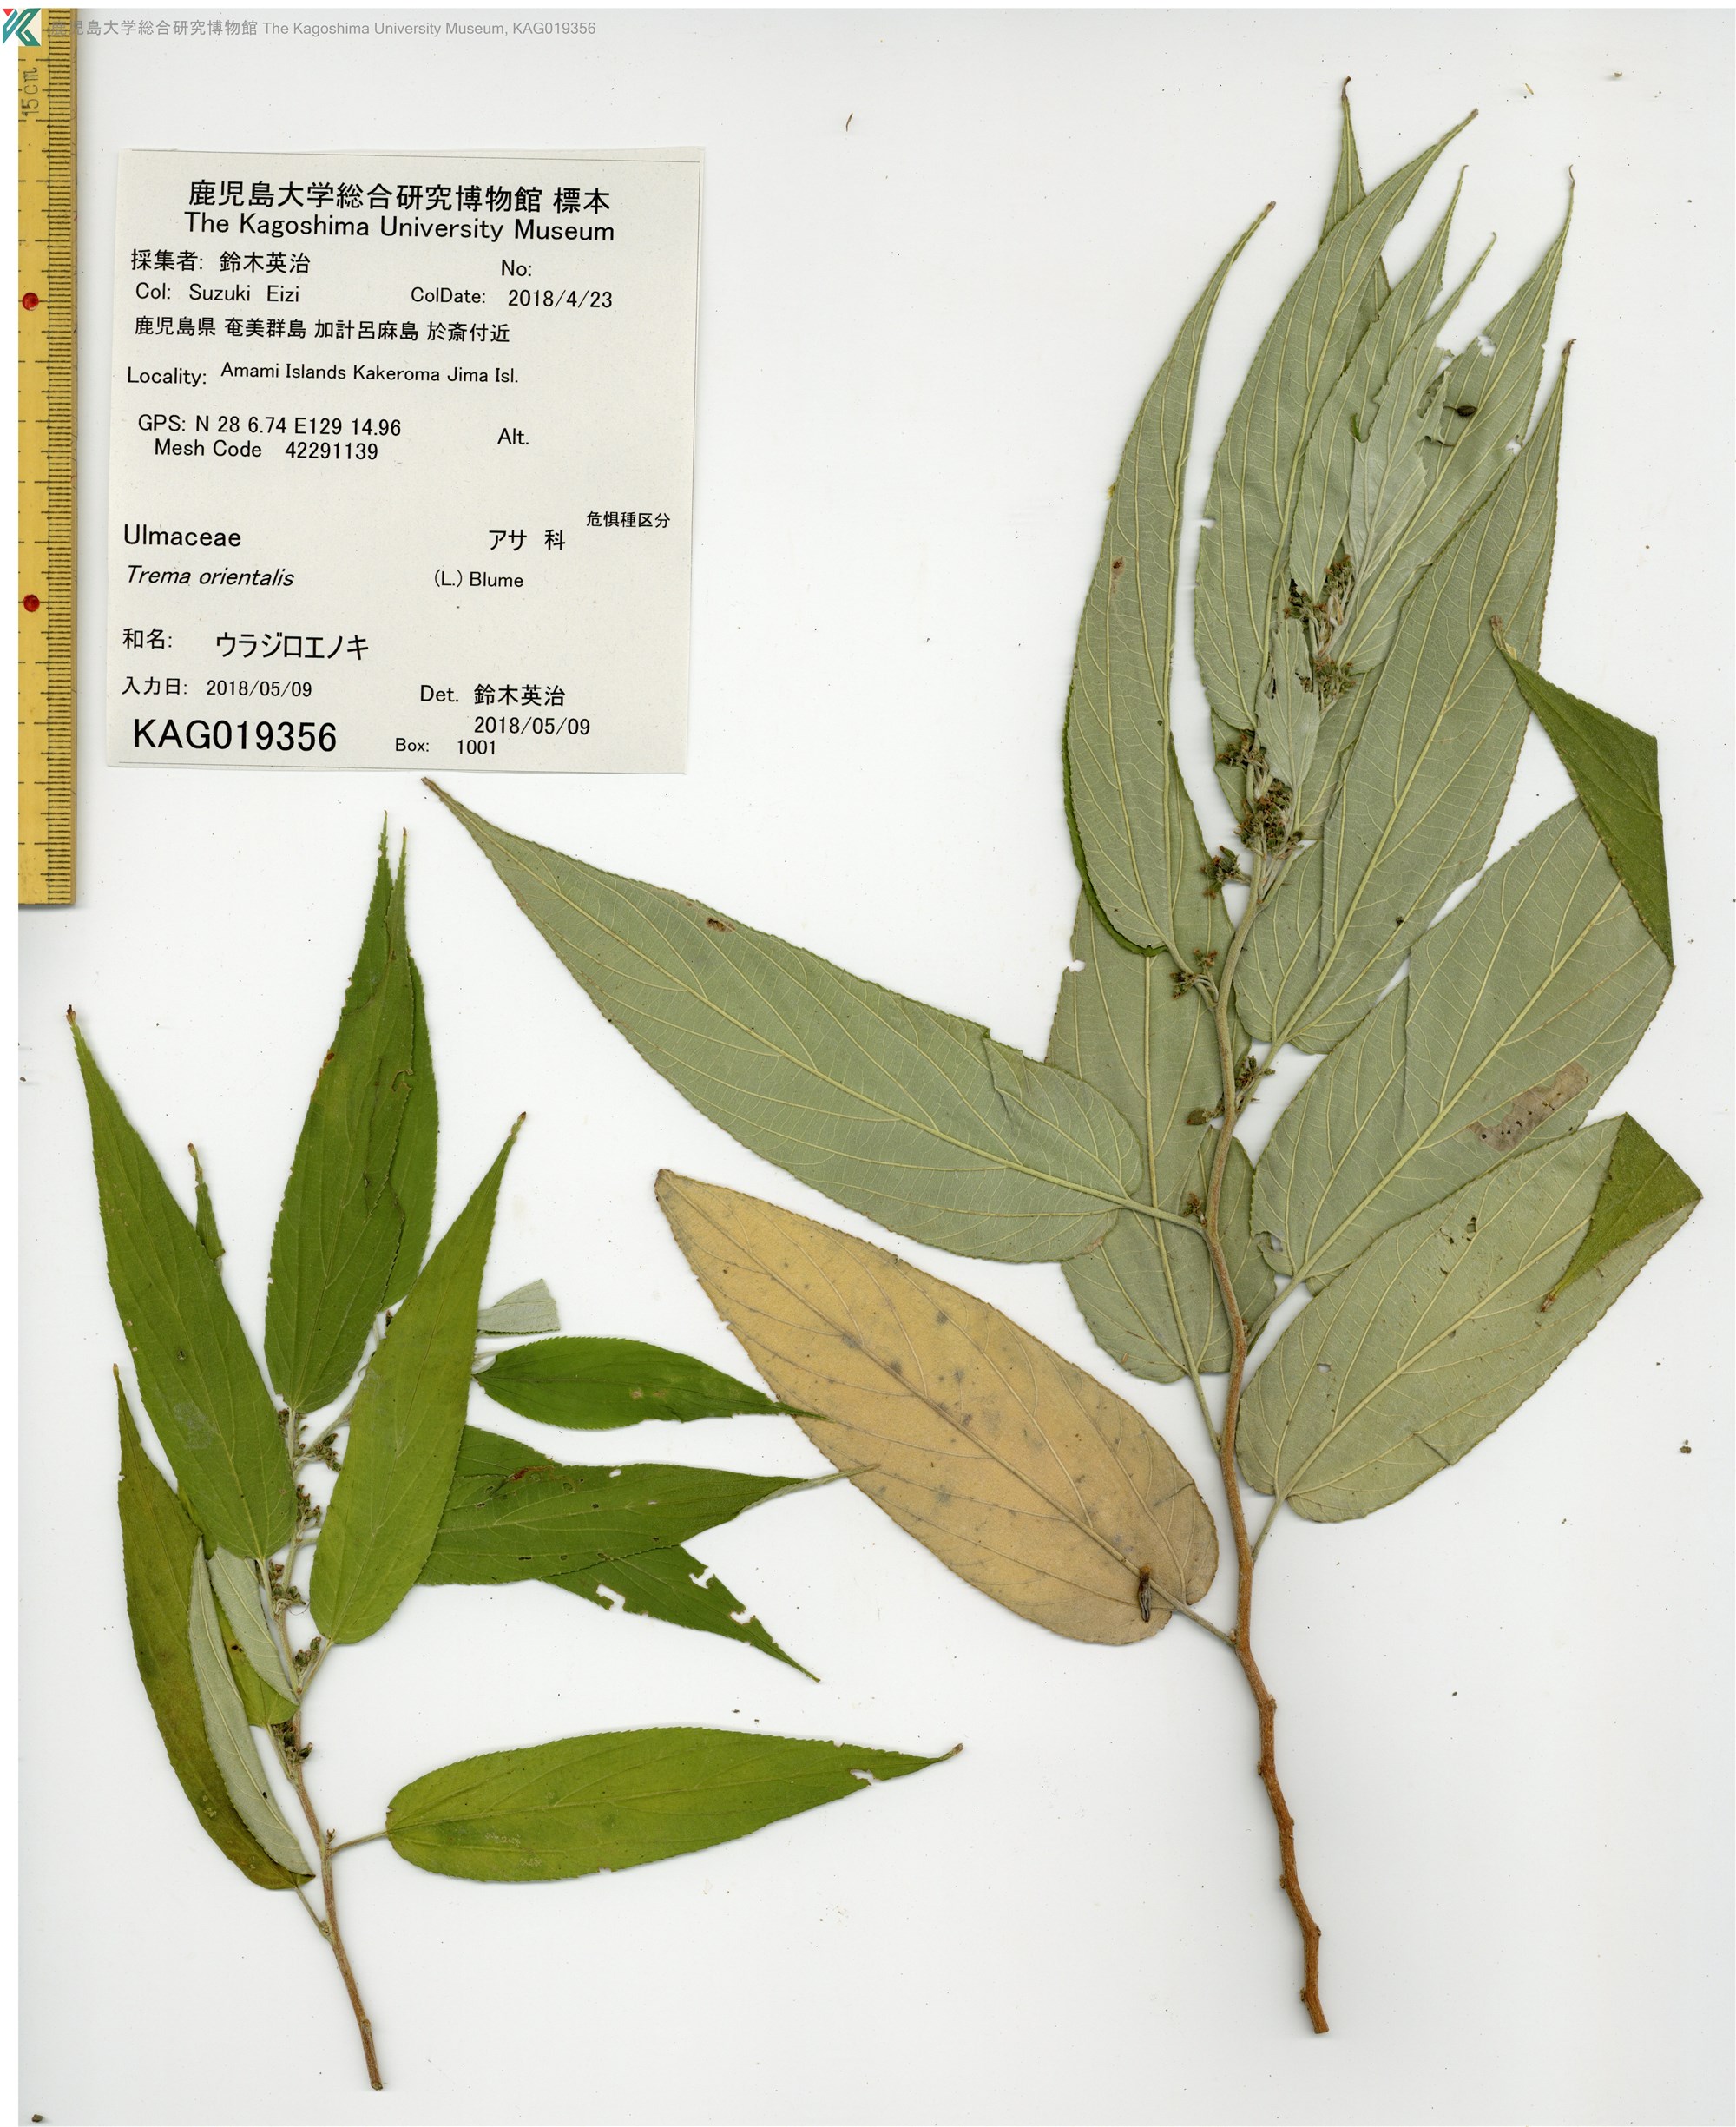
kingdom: Plantae
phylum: Tracheophyta
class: Magnoliopsida
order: Rosales
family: Cannabaceae
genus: Trema
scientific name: Trema orientale
